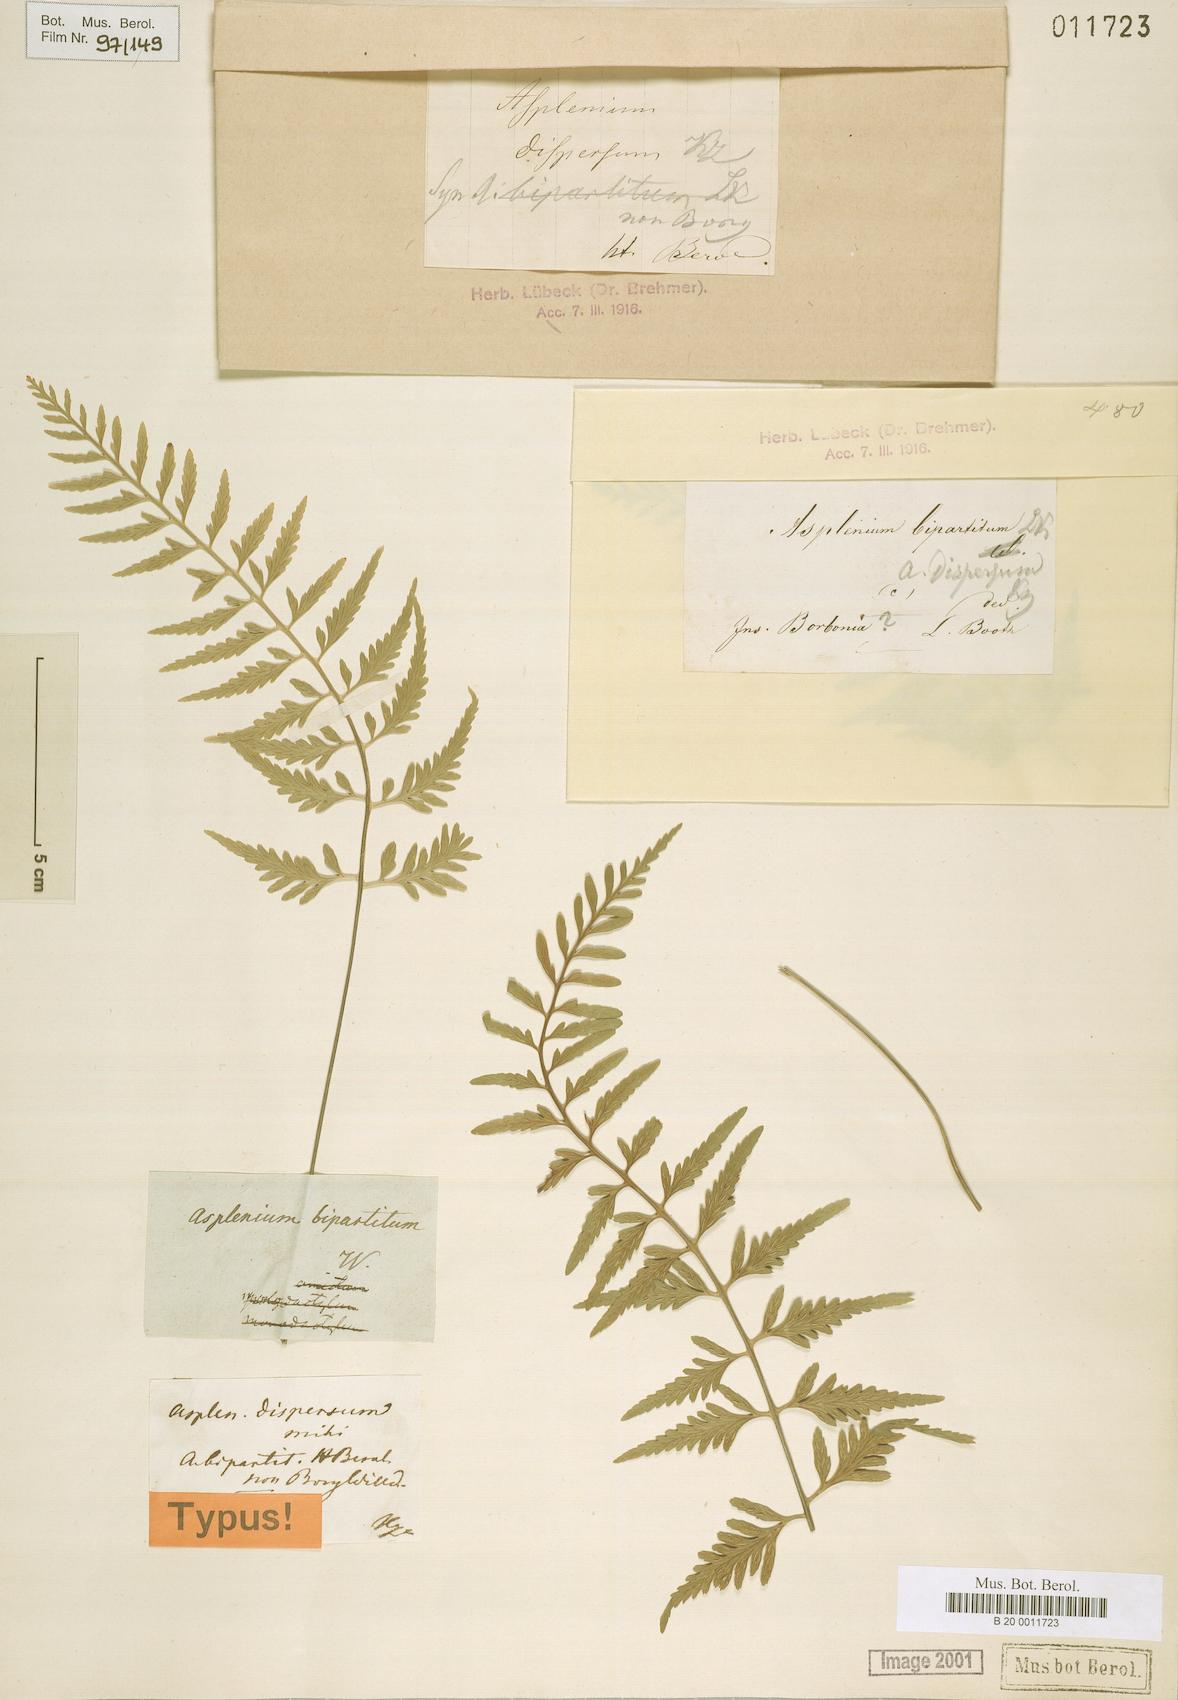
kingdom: Plantae
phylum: Tracheophyta
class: Polypodiopsida
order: Polypodiales
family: Aspleniaceae
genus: Asplenium
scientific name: Asplenium auritum
